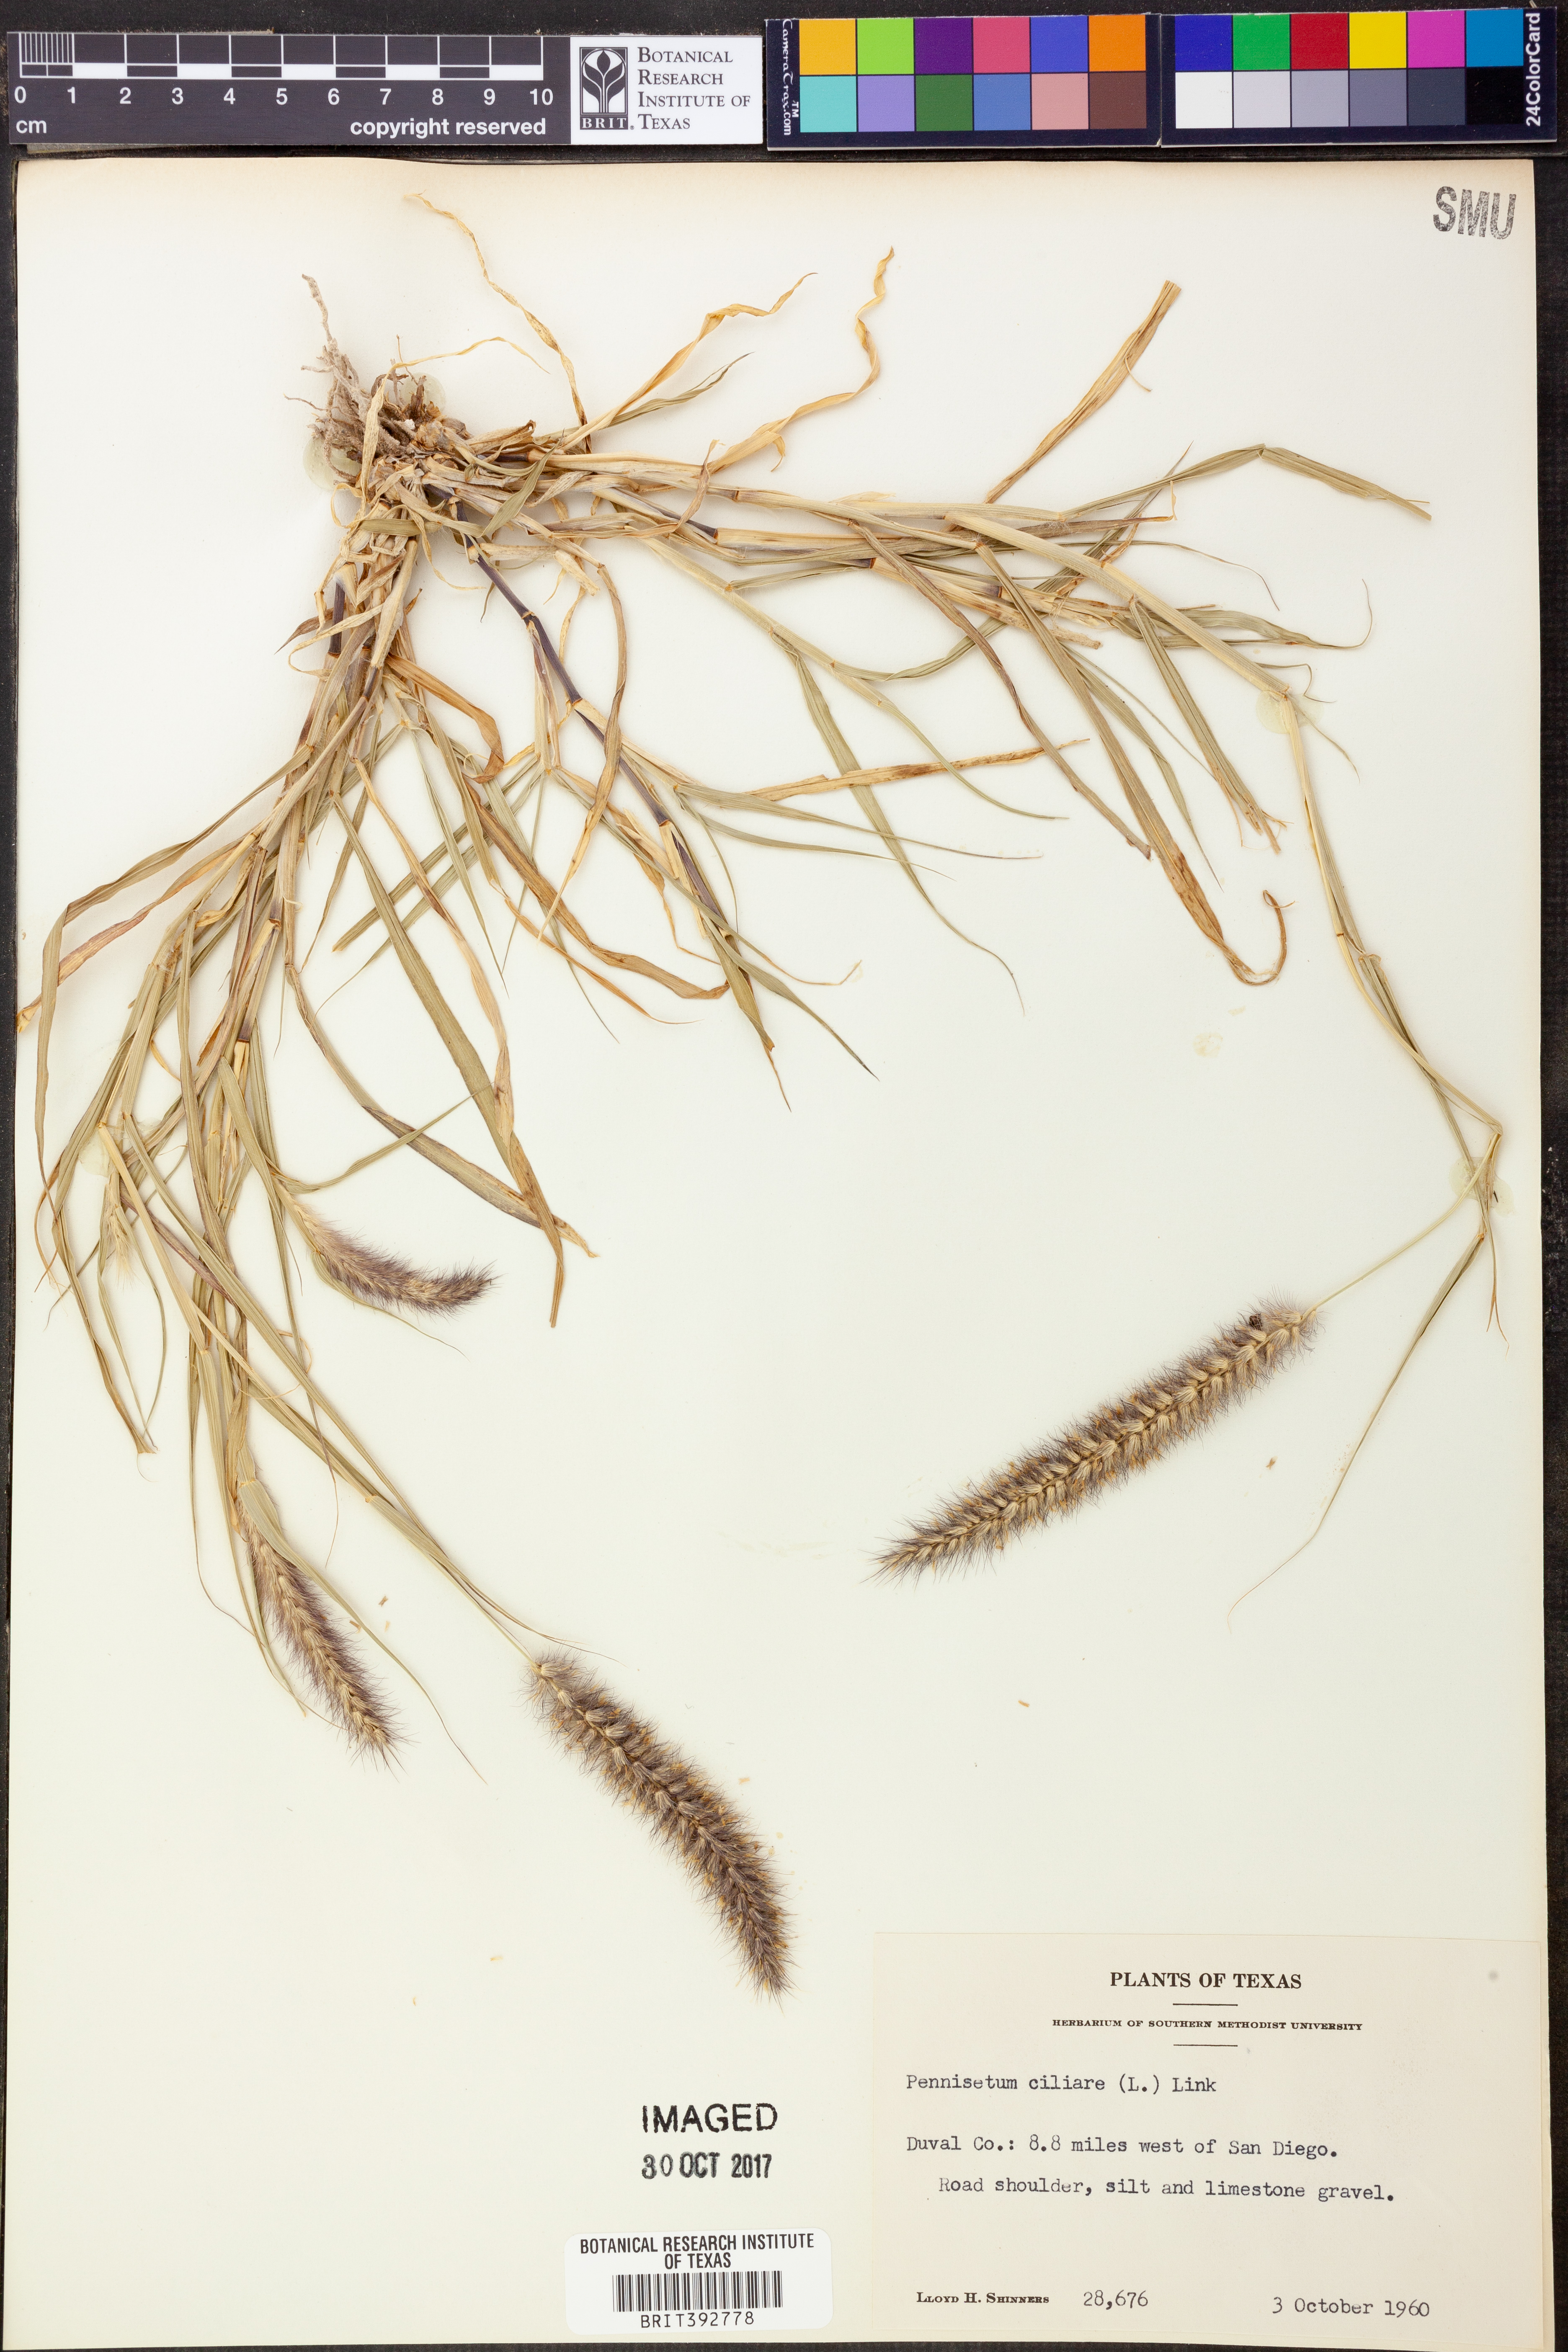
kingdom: Plantae
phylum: Tracheophyta
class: Liliopsida
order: Poales
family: Poaceae
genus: Cenchrus
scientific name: Cenchrus ciliaris
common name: Buffelgrass
